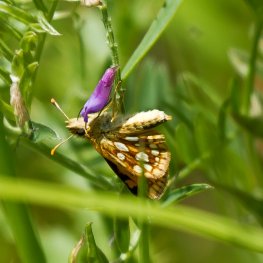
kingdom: Animalia
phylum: Arthropoda
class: Insecta
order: Lepidoptera
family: Hesperiidae
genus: Carterocephalus
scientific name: Carterocephalus palaemon
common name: Chequered Skipper
